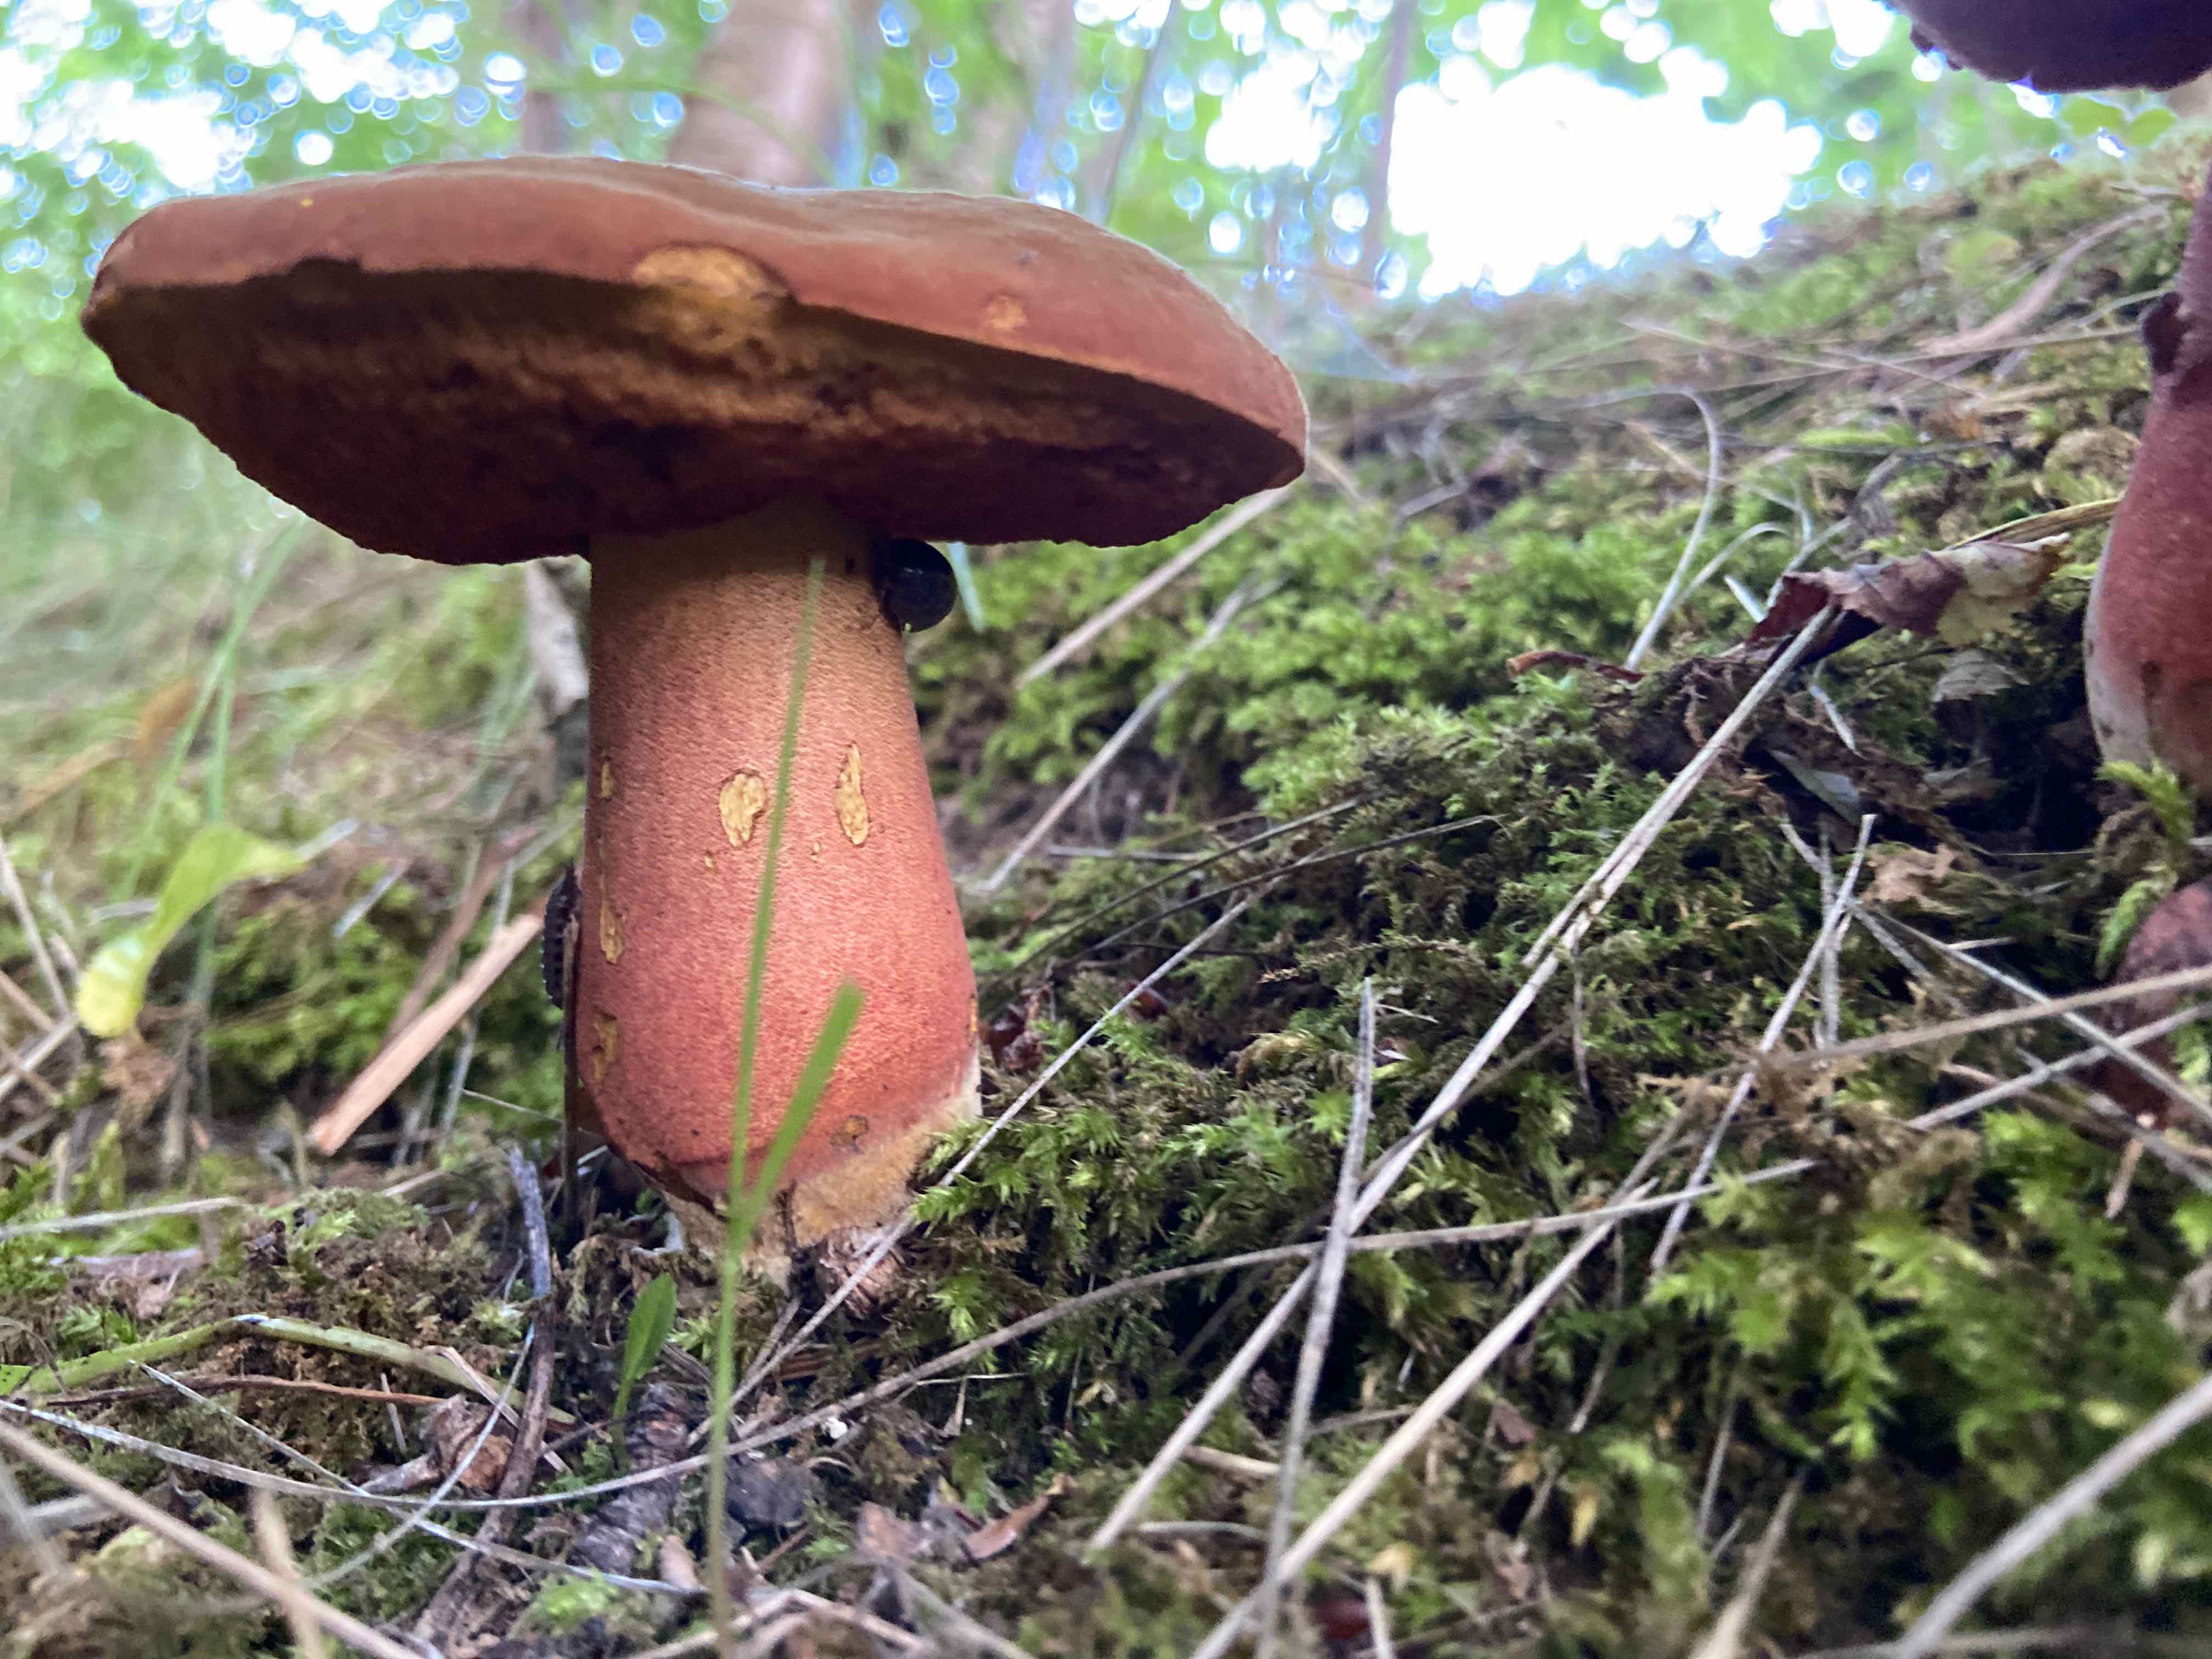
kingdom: Fungi
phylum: Basidiomycota
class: Agaricomycetes
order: Boletales
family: Boletaceae
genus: Neoboletus
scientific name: Neoboletus erythropus
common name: punktstokket indigorørhat
